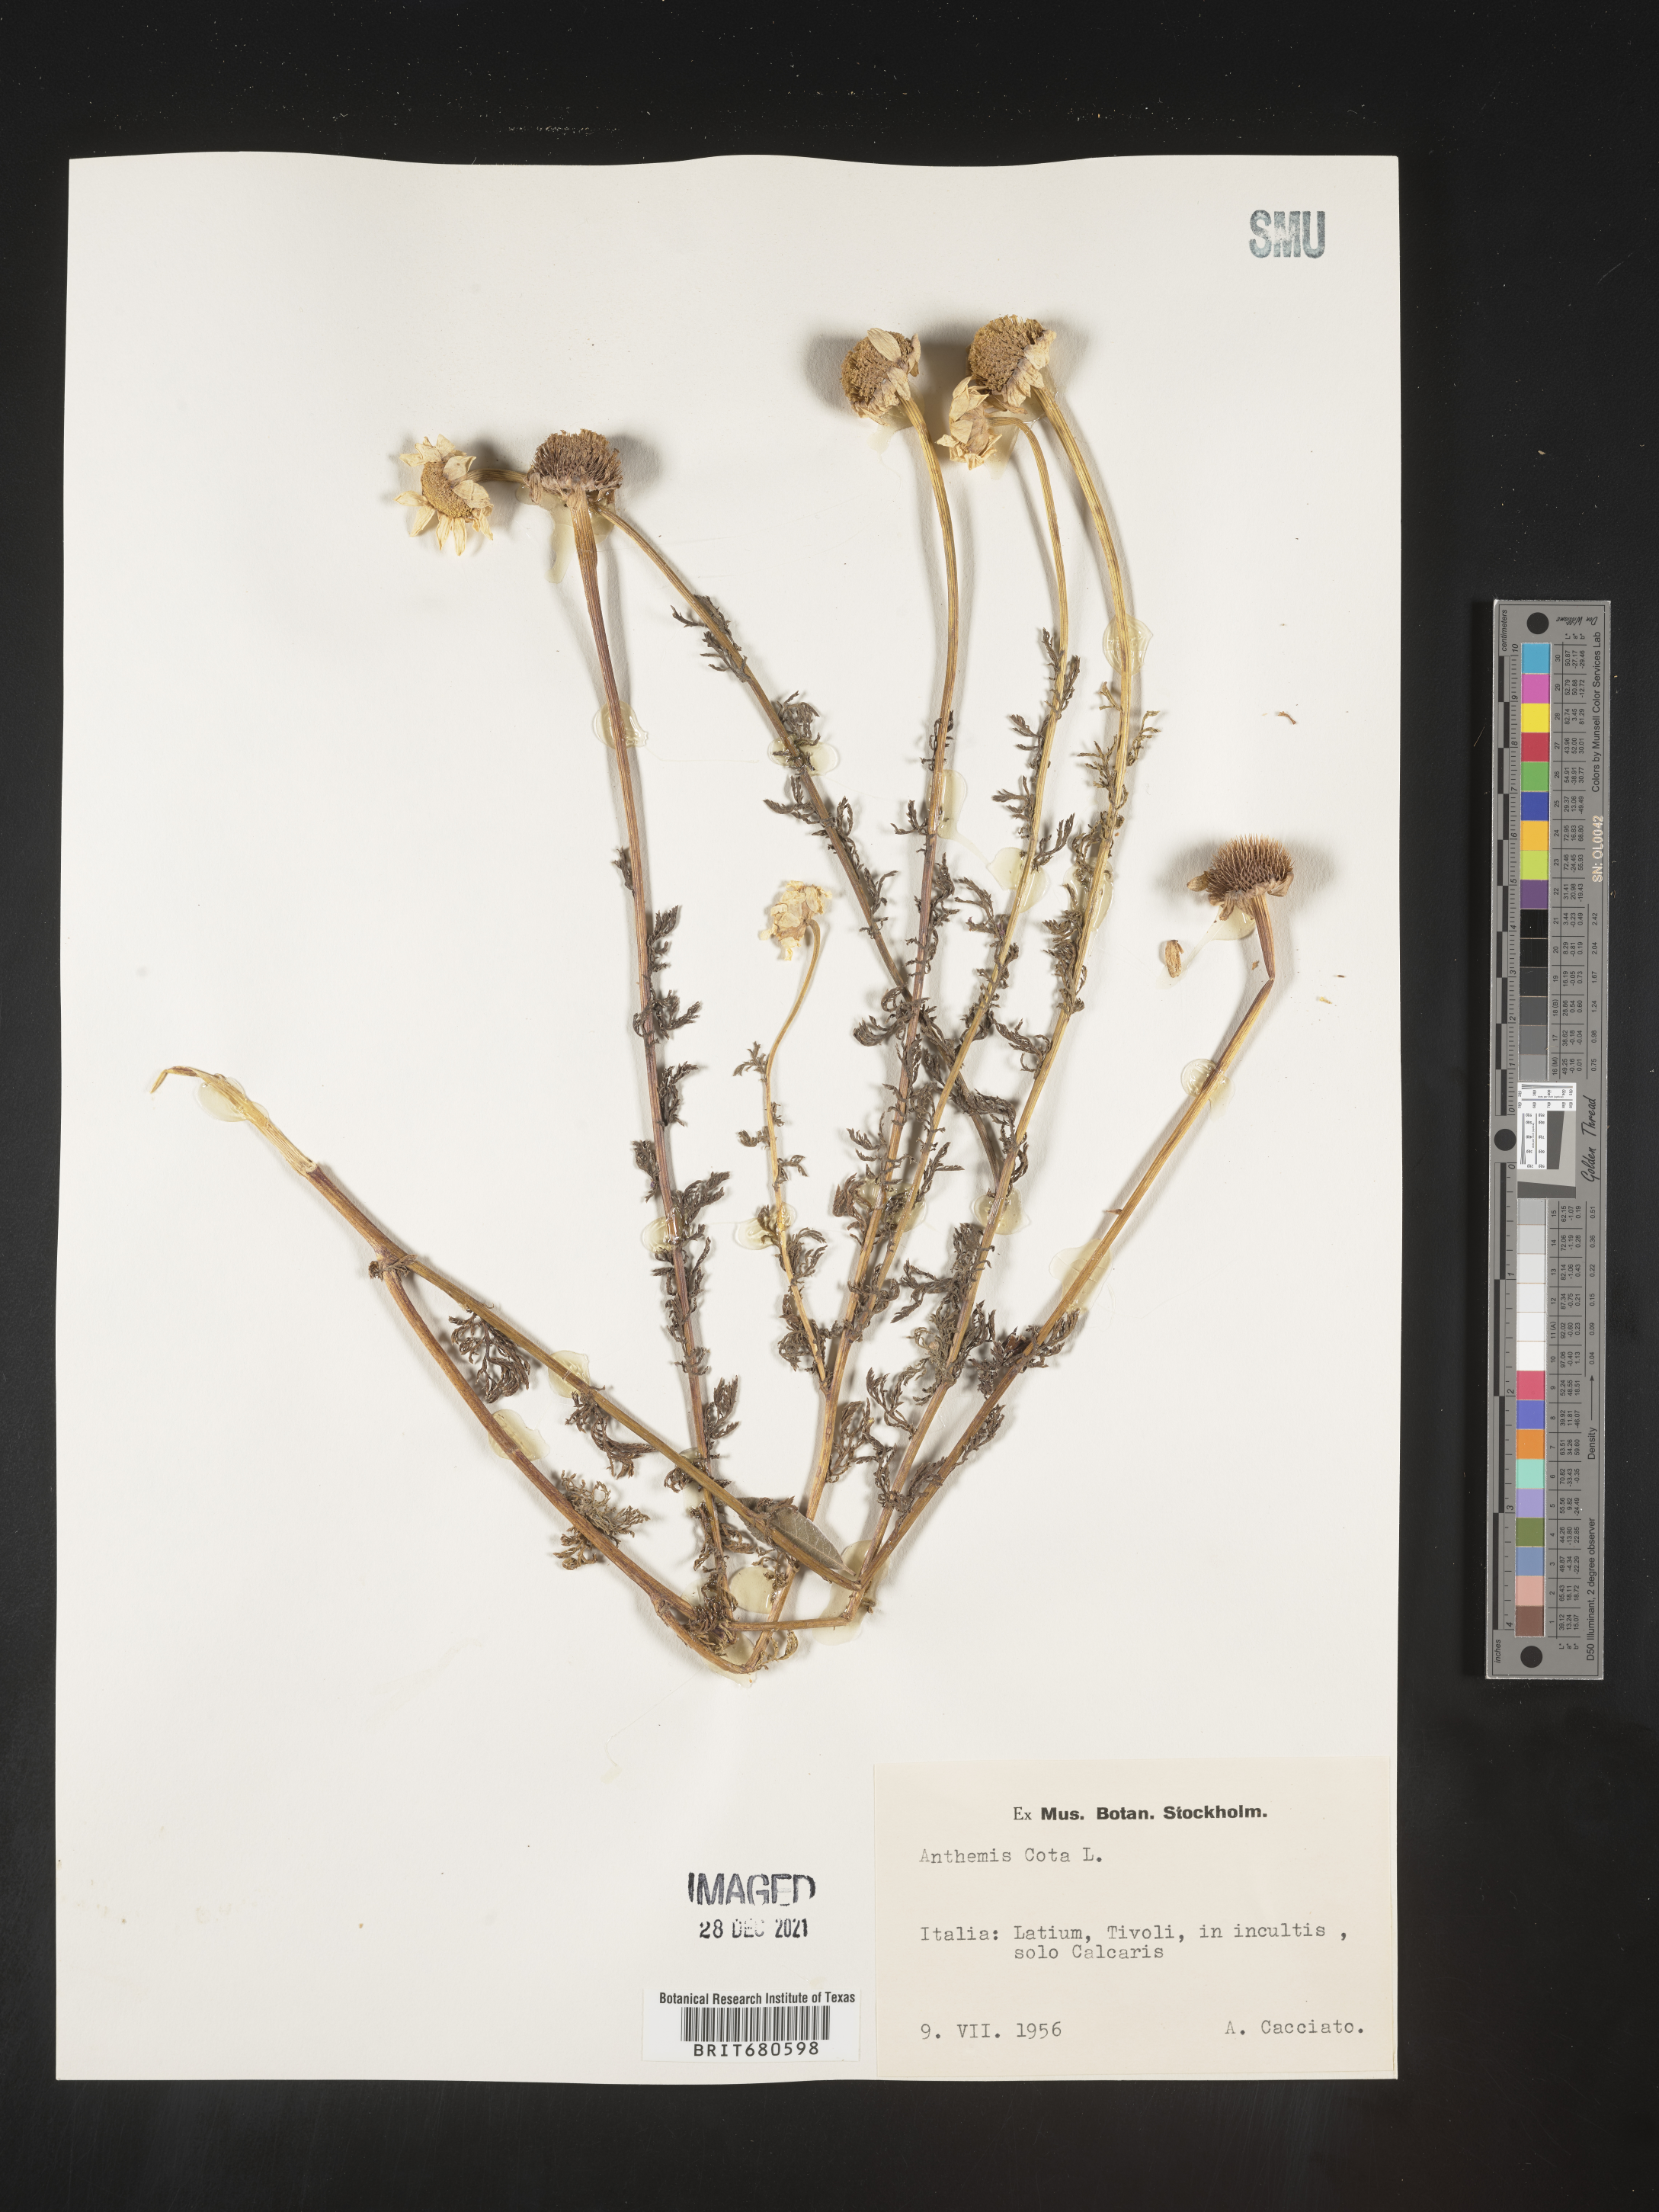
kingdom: Plantae
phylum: Tracheophyta
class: Magnoliopsida
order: Asterales
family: Asteraceae
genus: Anthemis
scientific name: Anthemis
